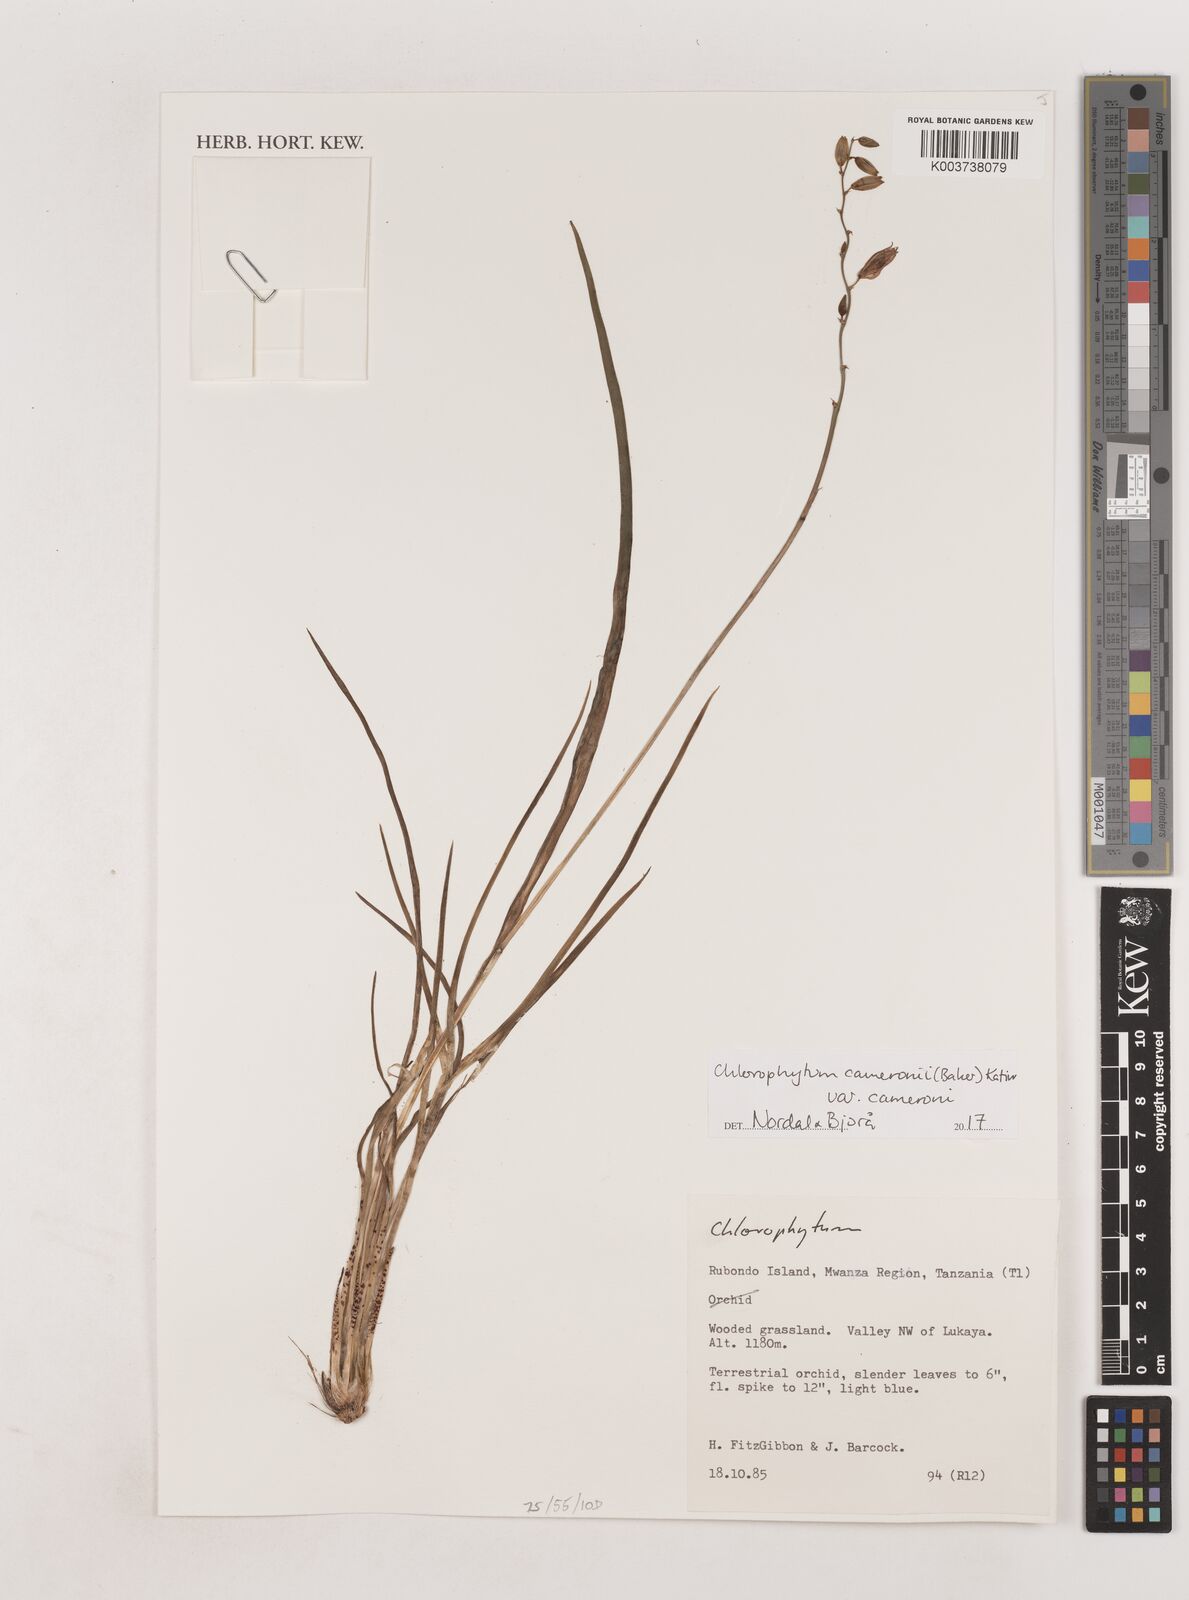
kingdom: Plantae
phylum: Tracheophyta
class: Liliopsida
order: Asparagales
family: Asparagaceae
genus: Chlorophytum
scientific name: Chlorophytum cameronii
